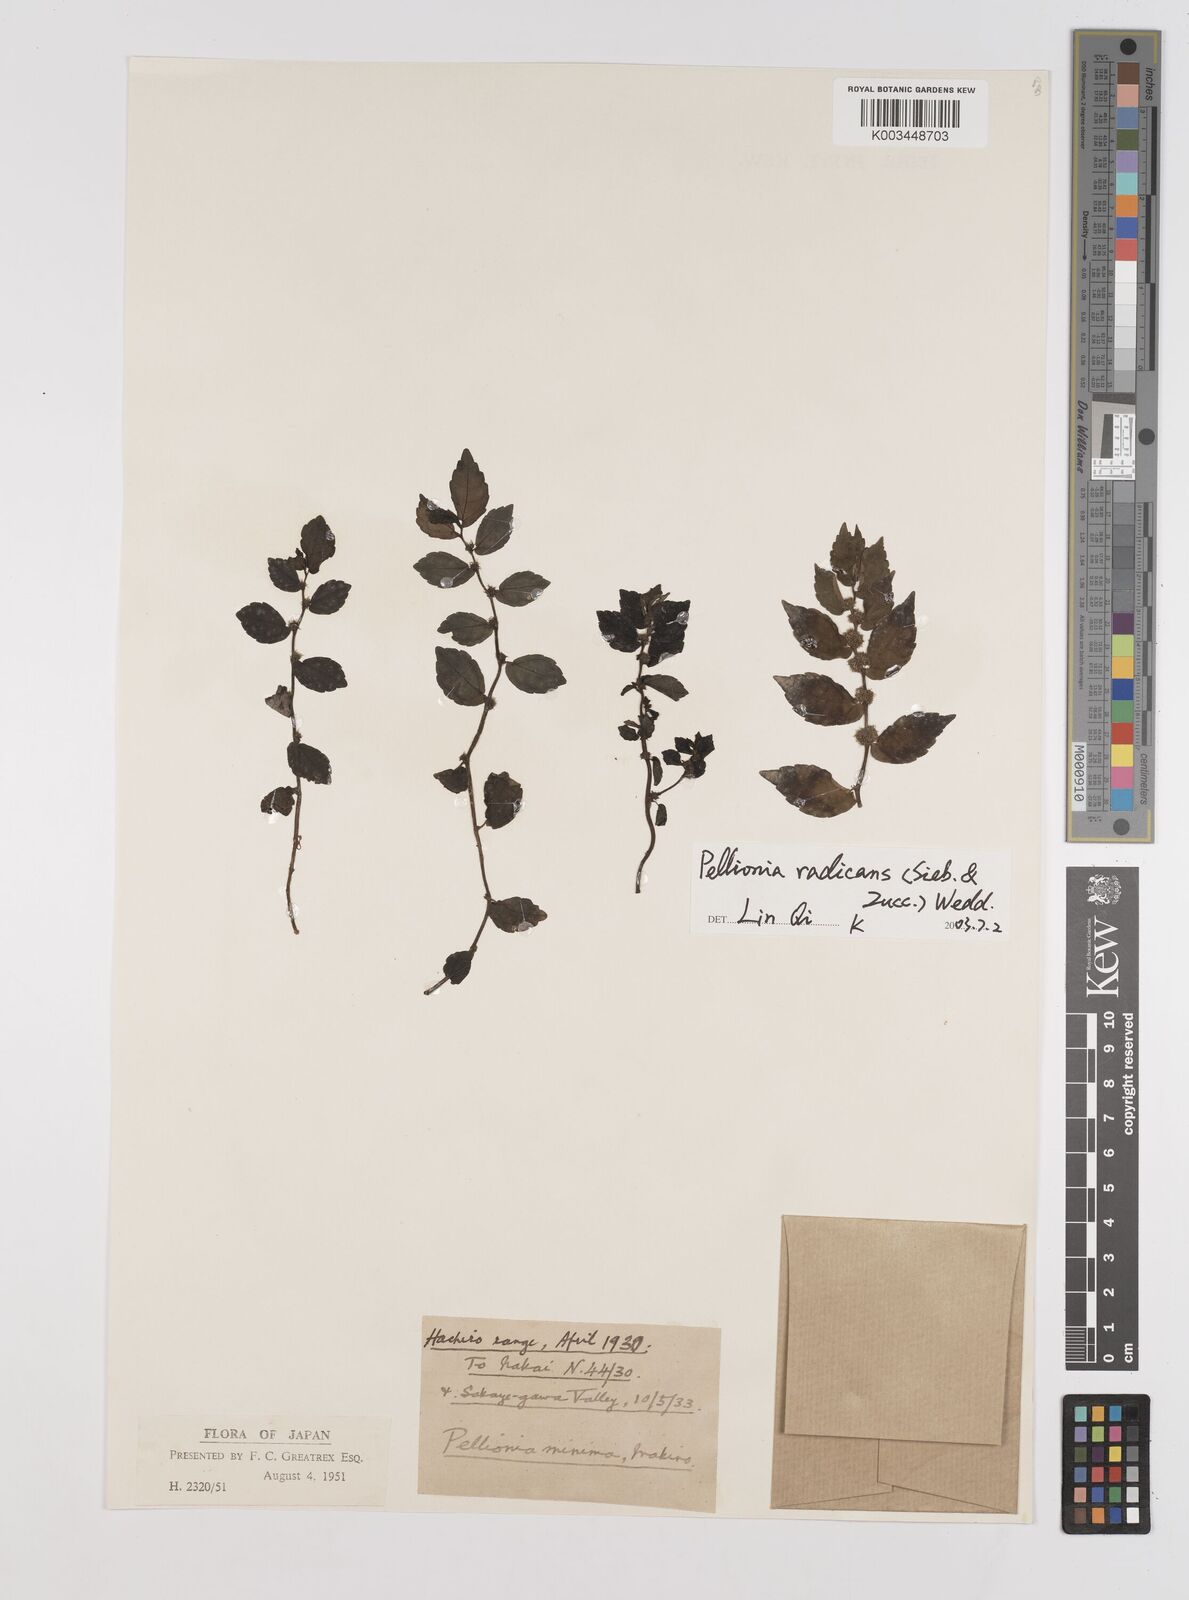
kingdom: Plantae
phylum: Tracheophyta
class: Magnoliopsida
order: Rosales
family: Urticaceae
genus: Elatostema
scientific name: Elatostema radicans
